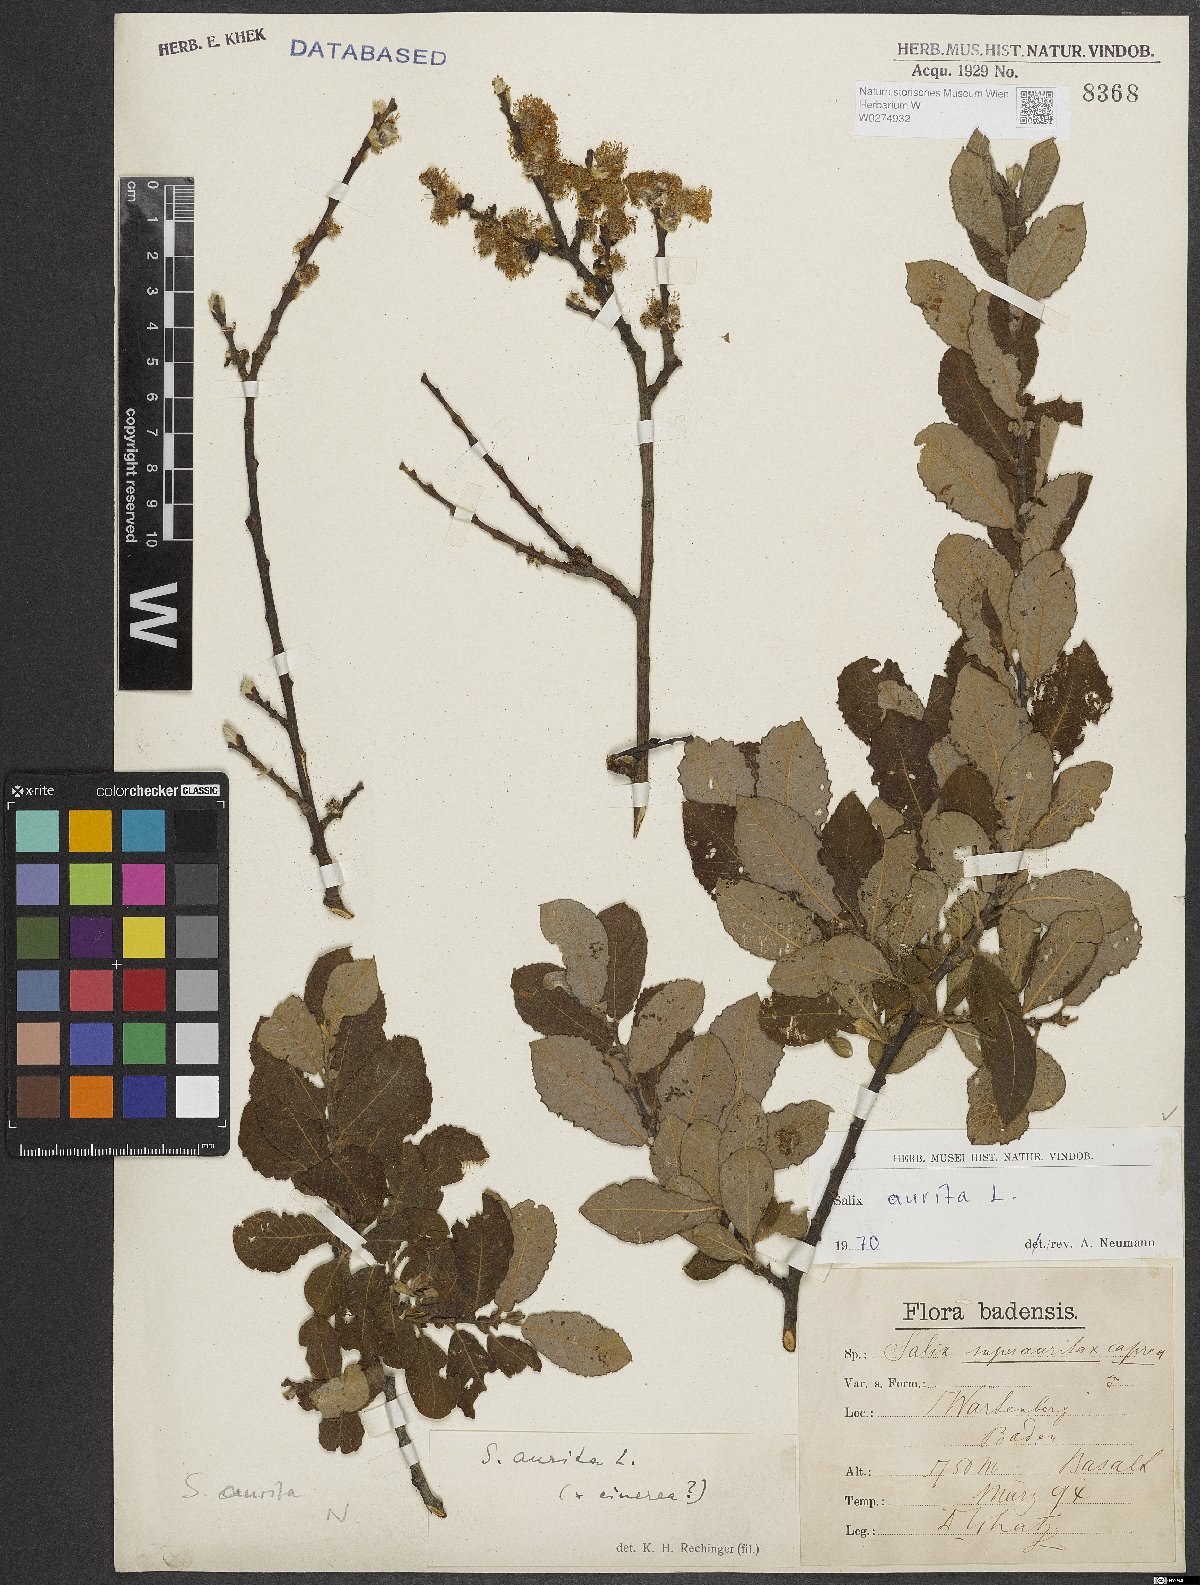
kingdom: Plantae
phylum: Tracheophyta
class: Magnoliopsida
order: Malpighiales
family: Salicaceae
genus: Salix
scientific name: Salix aurita
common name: Eared willow
